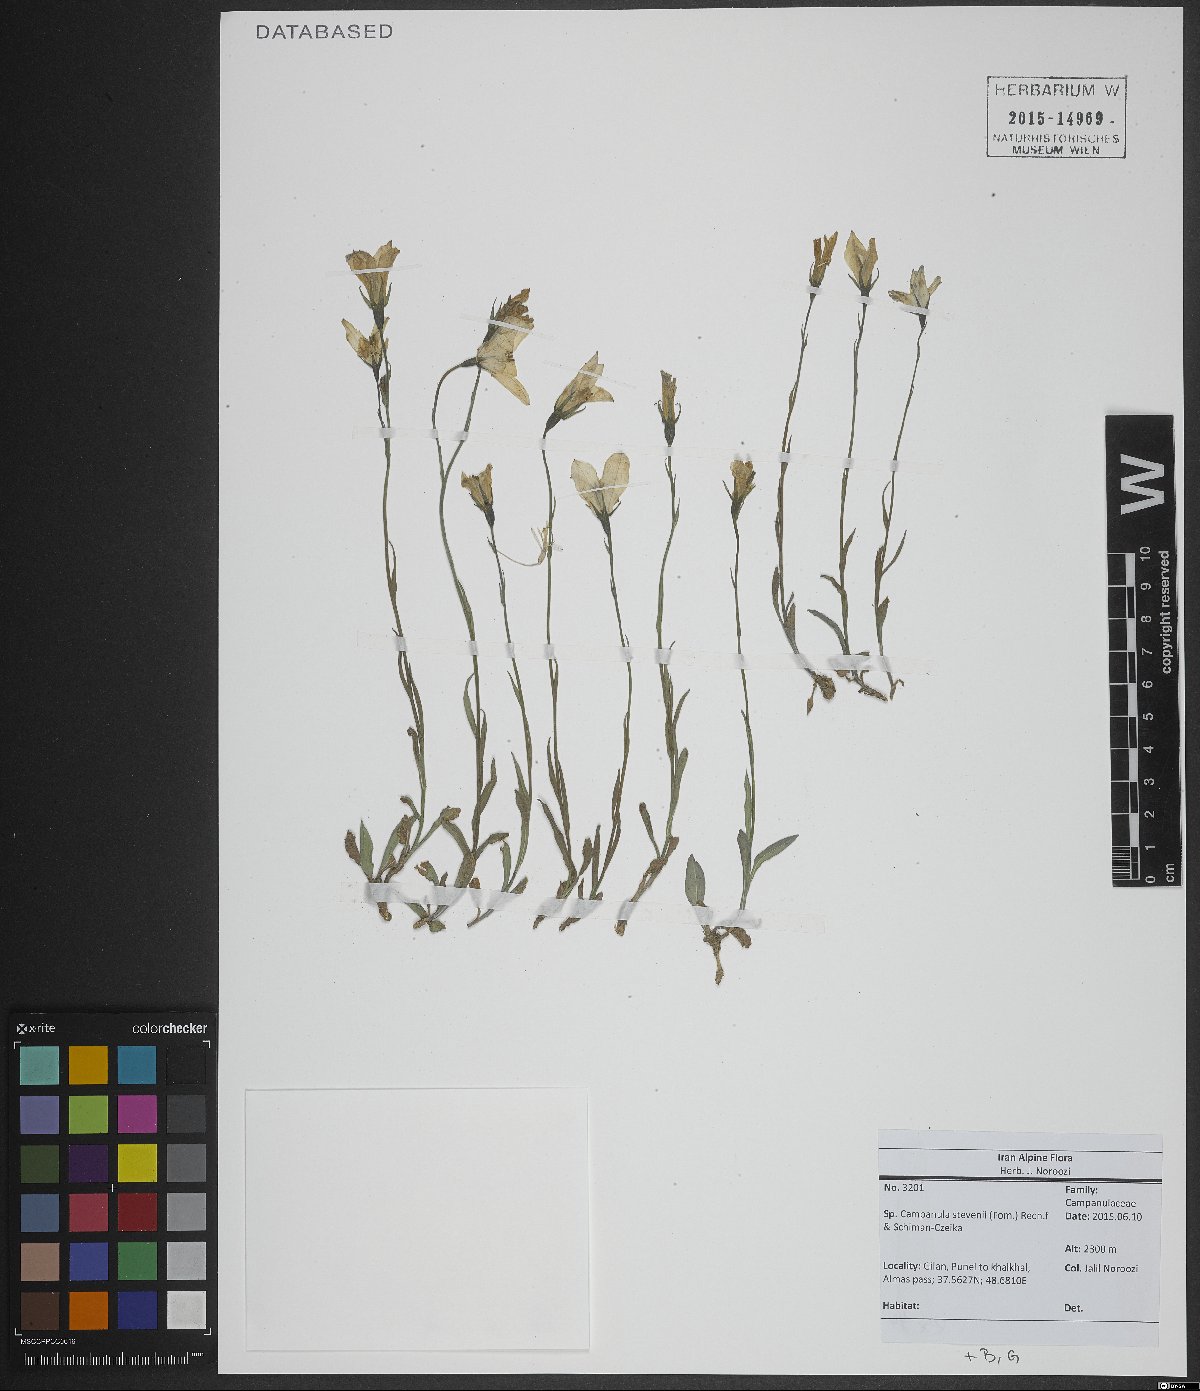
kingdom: Plantae
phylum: Tracheophyta
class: Magnoliopsida
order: Asterales
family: Campanulaceae
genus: Campanula
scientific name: Campanula stevenii
